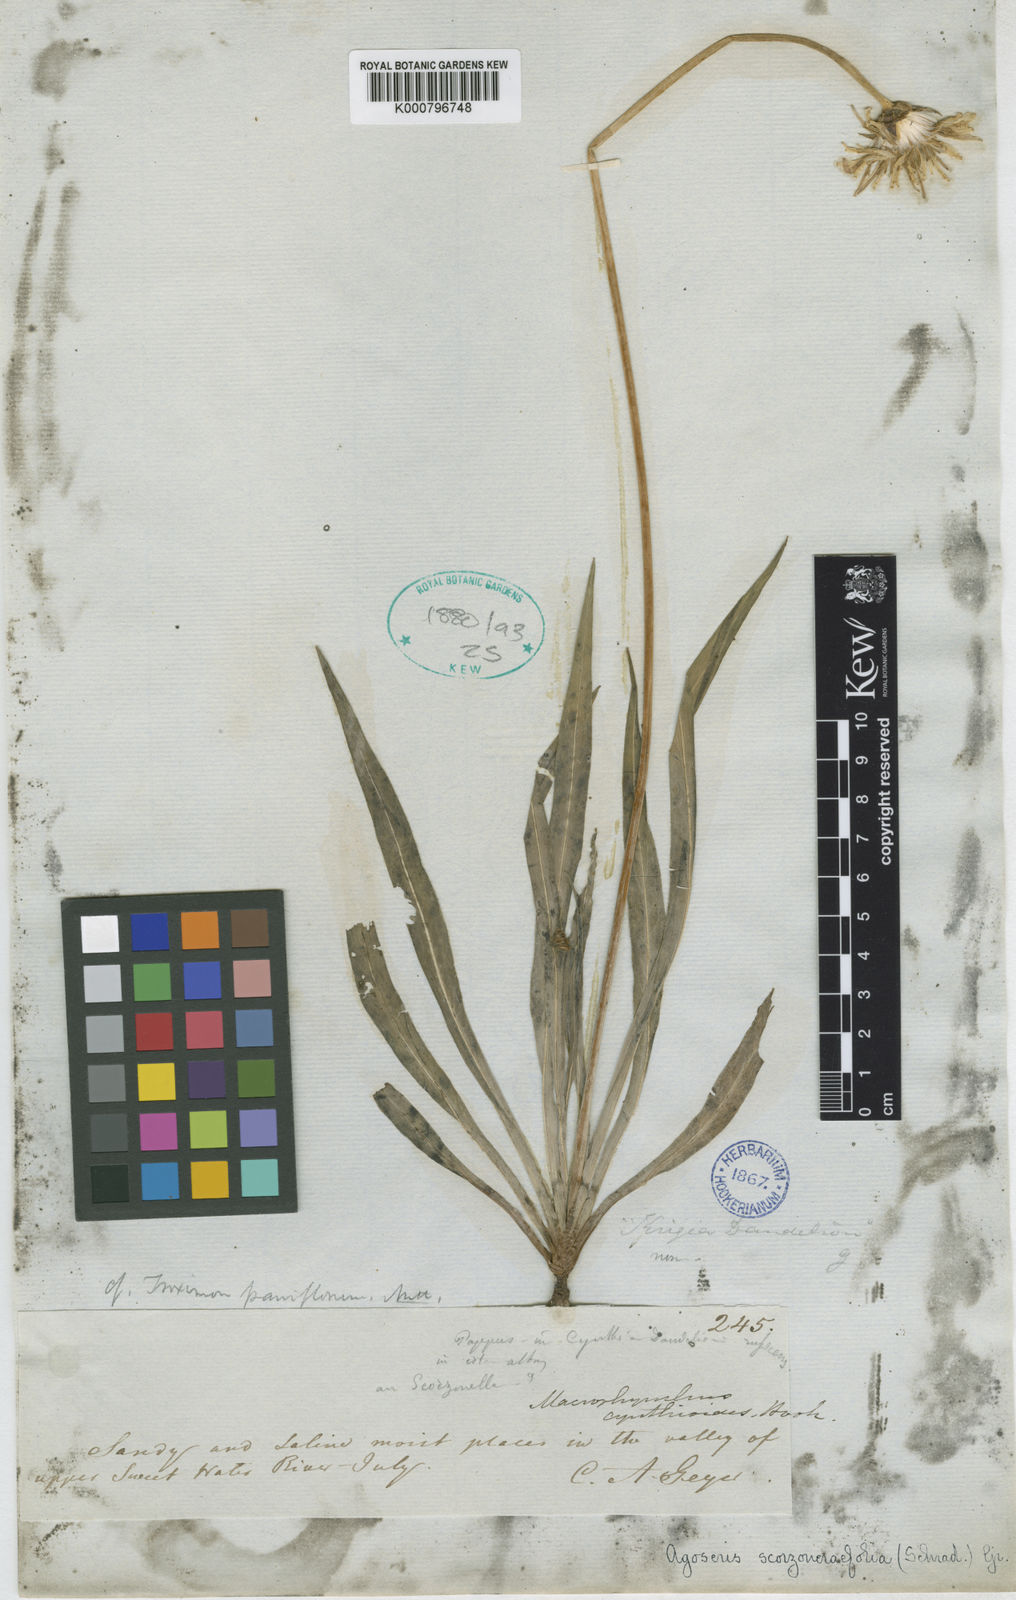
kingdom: Plantae
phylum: Tracheophyta
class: Magnoliopsida
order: Asterales
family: Asteraceae
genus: Agoseris
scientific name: Agoseris glauca
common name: Prairie agoseris
